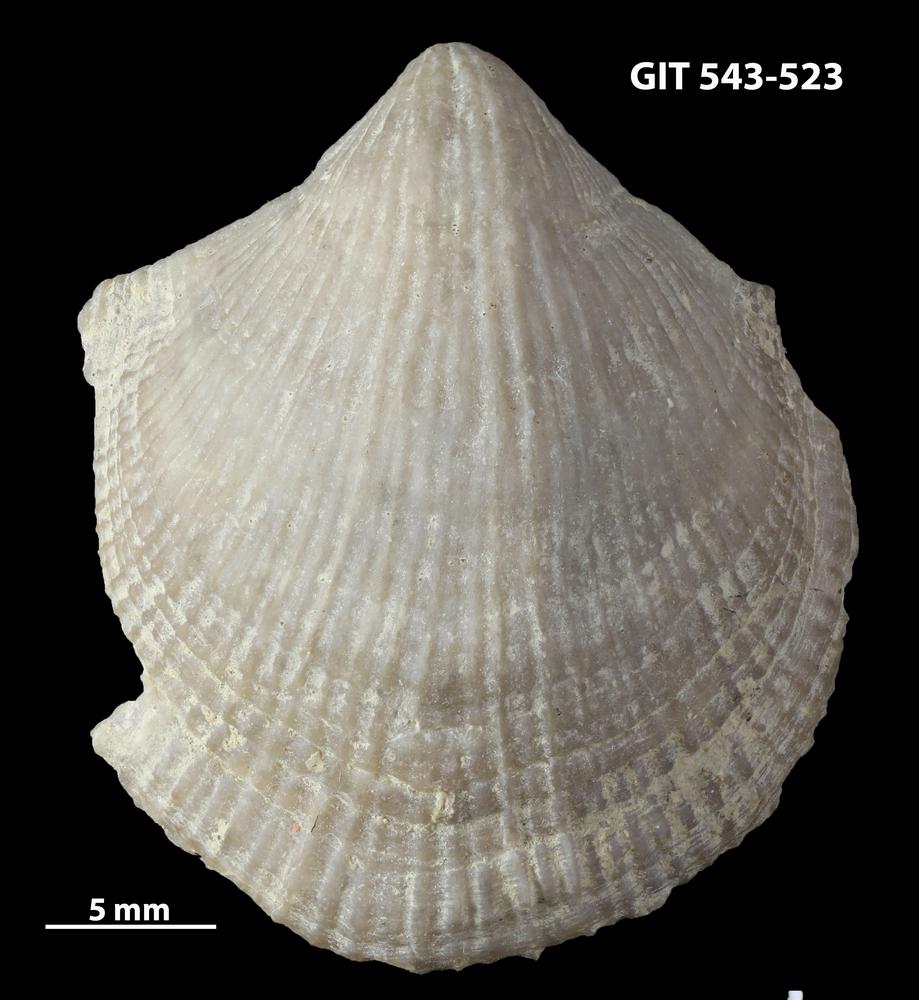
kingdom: Animalia
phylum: Brachiopoda
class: Rhynchonellata
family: Clitambonitidae
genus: Vellamo
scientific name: Vellamo Orthis verneuili
